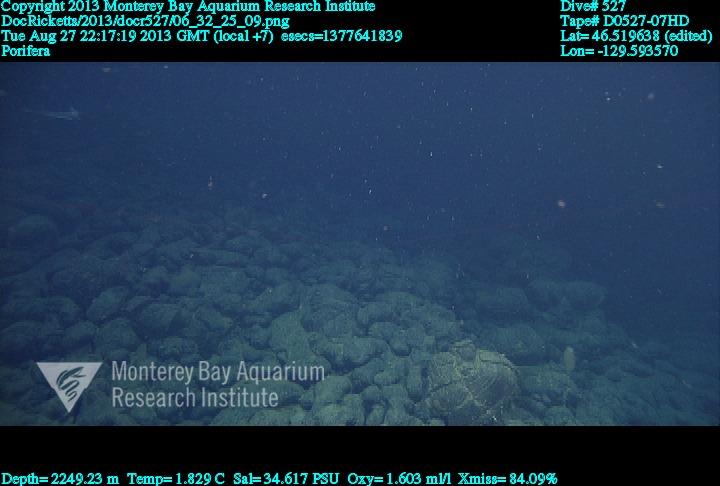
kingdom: Animalia
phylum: Porifera
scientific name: Porifera
